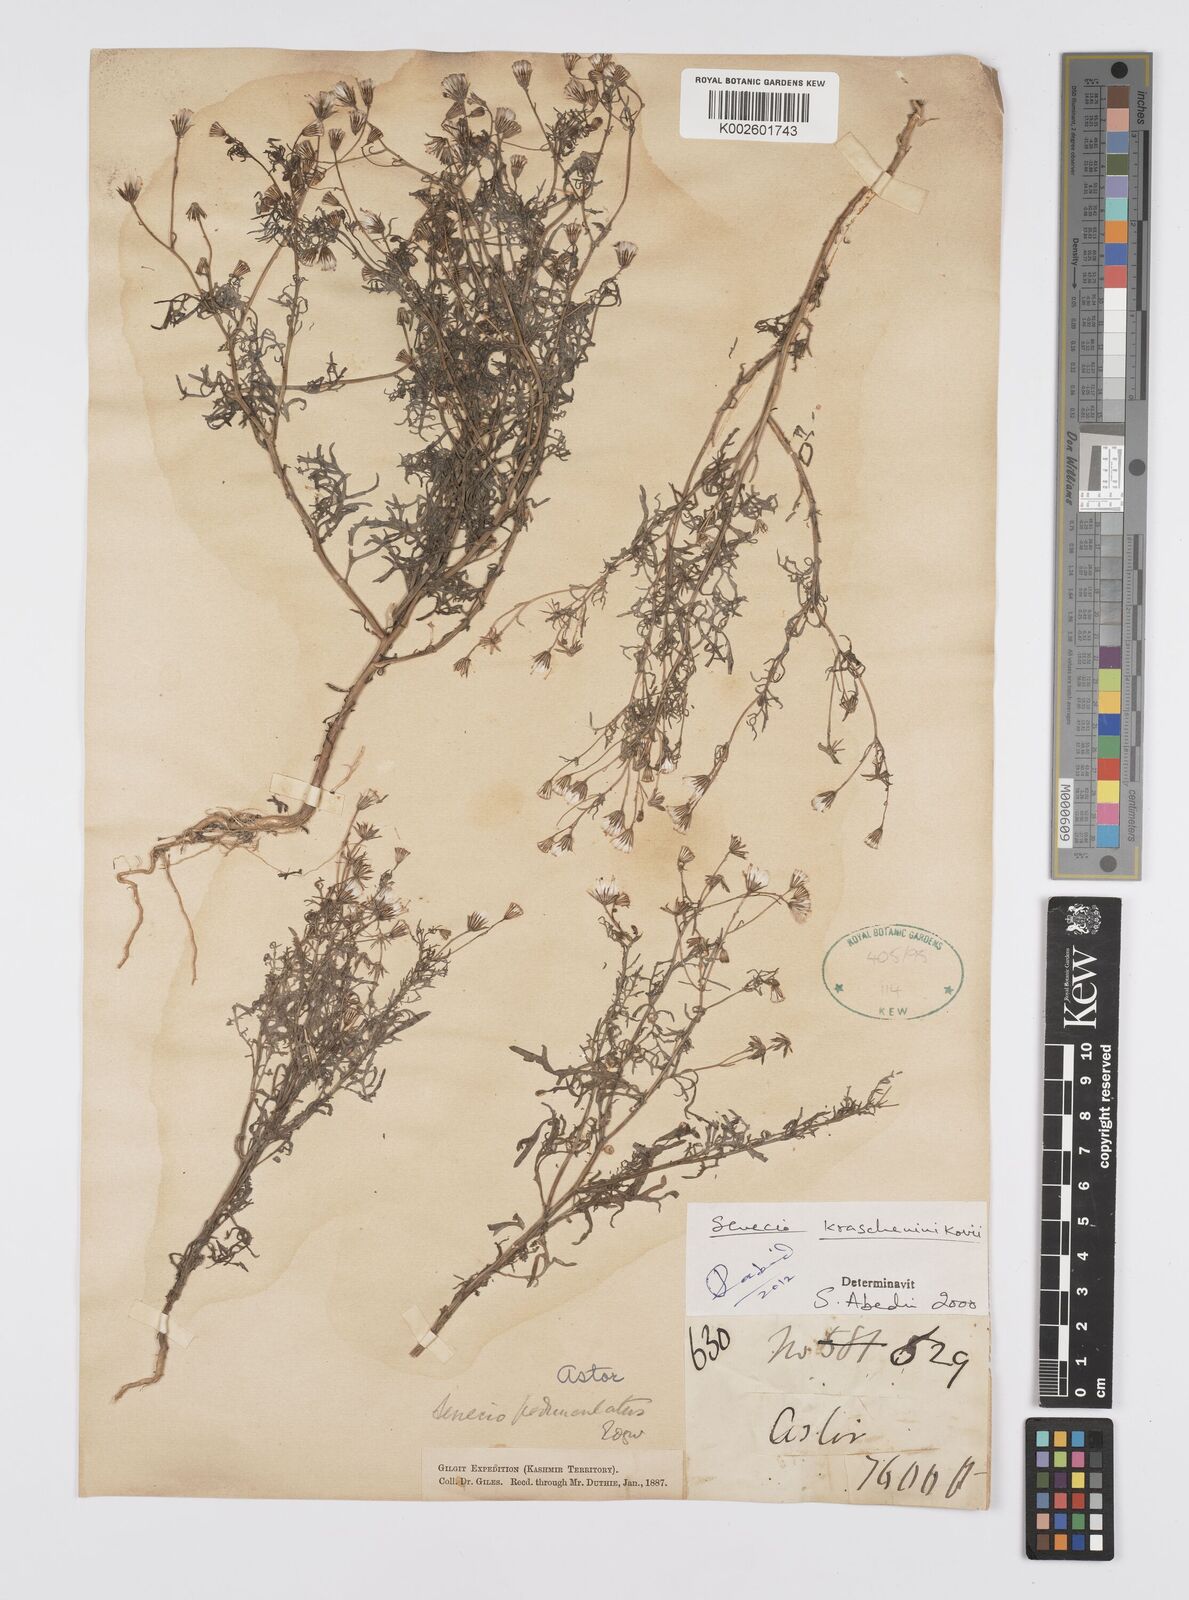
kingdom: Plantae
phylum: Tracheophyta
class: Magnoliopsida
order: Asterales
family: Asteraceae
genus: Senecio
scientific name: Senecio krascheninnikovii
